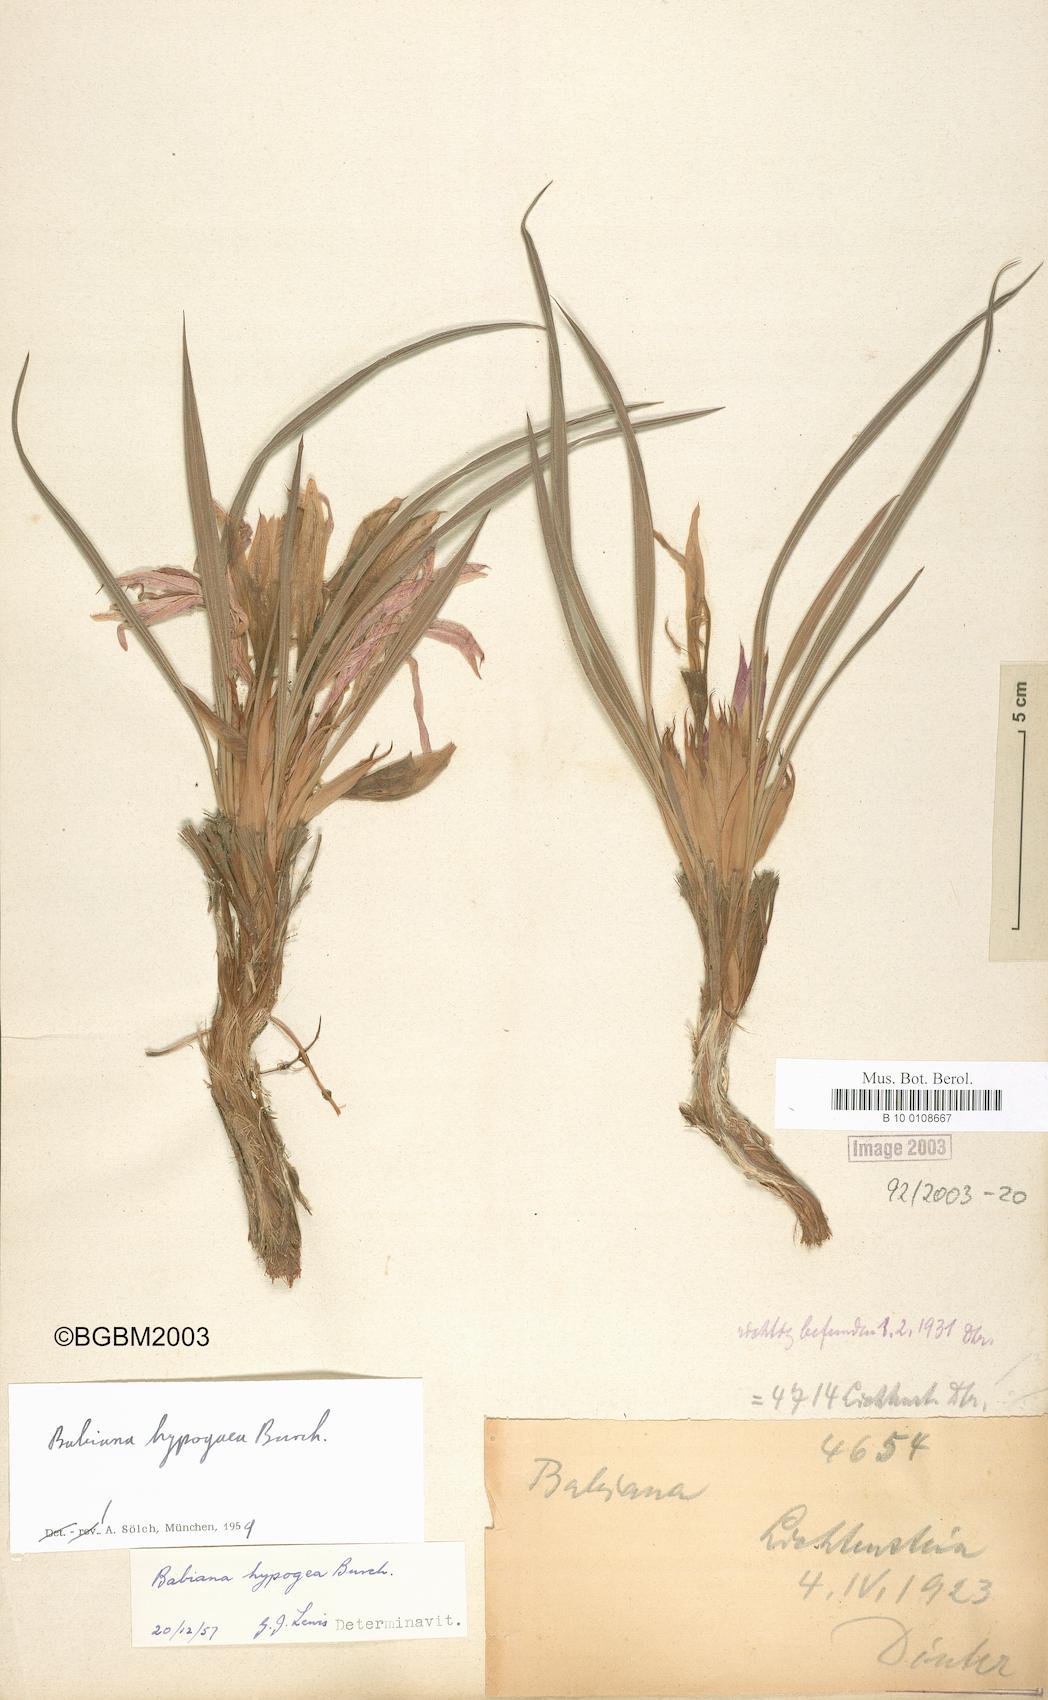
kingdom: Plantae
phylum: Tracheophyta
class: Liliopsida
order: Asparagales
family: Iridaceae
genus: Babiana
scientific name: Babiana hypogaea
